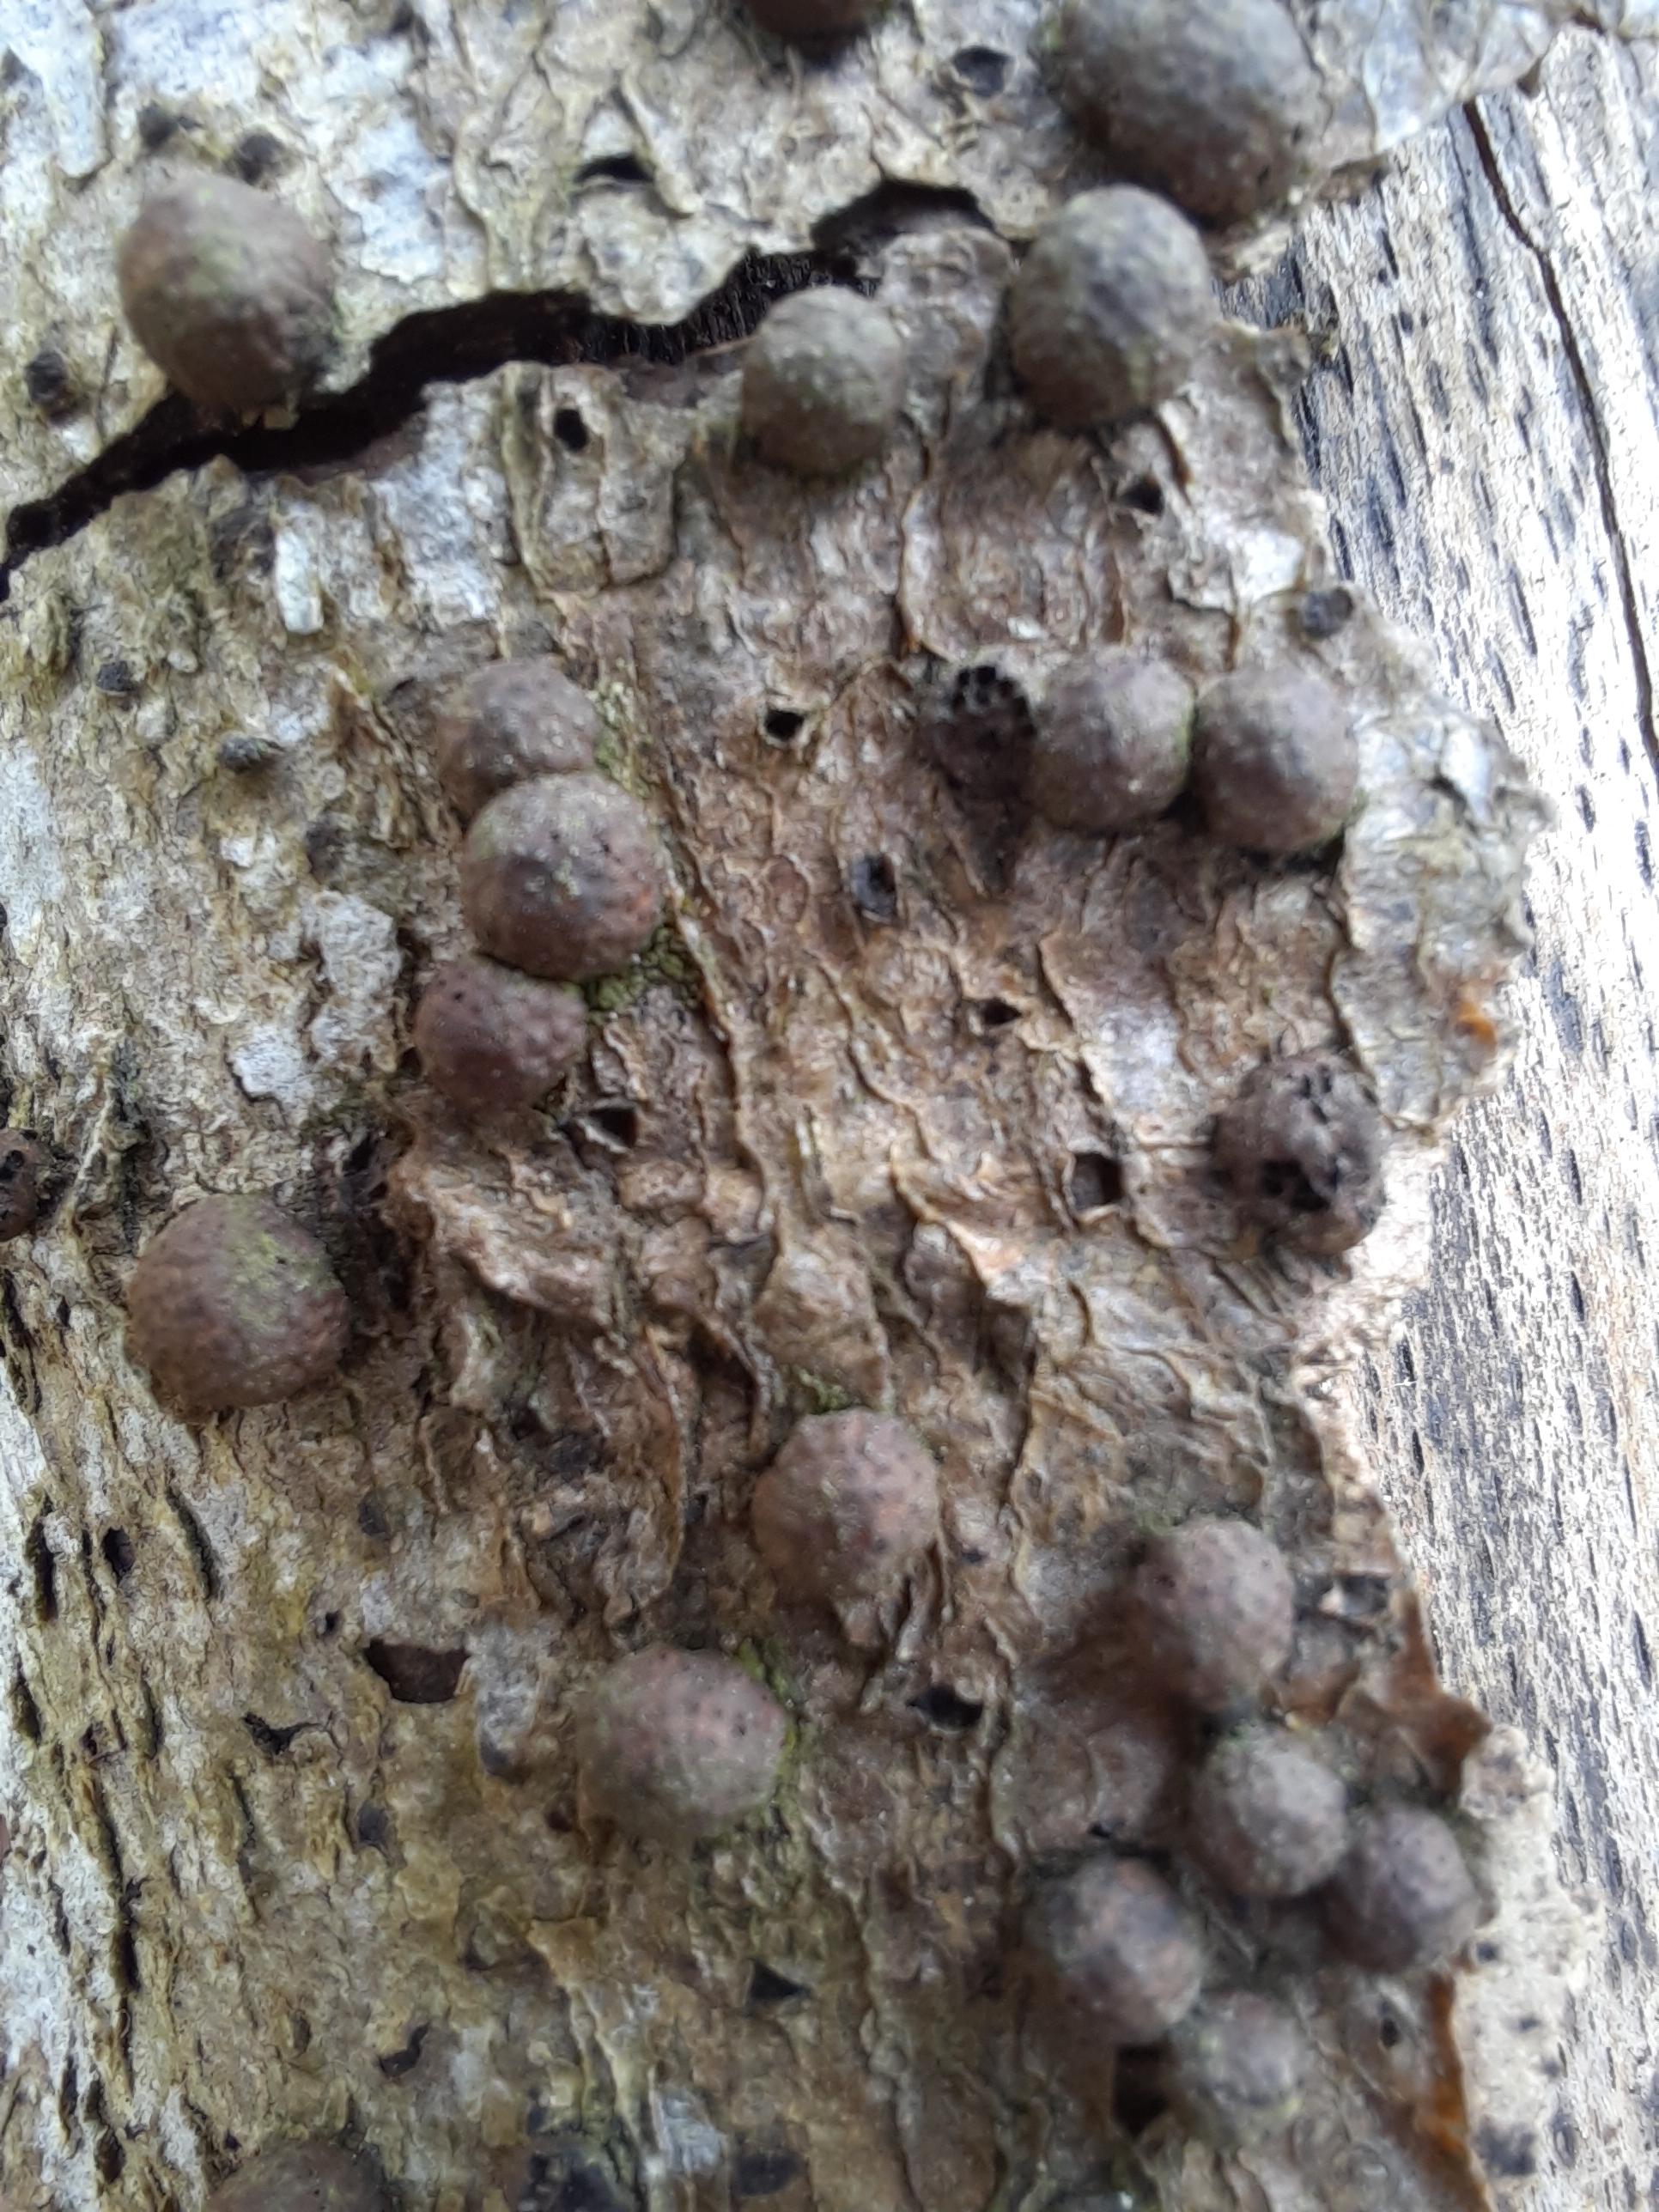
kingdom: Fungi
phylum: Ascomycota
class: Sordariomycetes
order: Xylariales
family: Hypoxylaceae
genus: Hypoxylon
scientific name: Hypoxylon fragiforme
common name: kuljordbær
